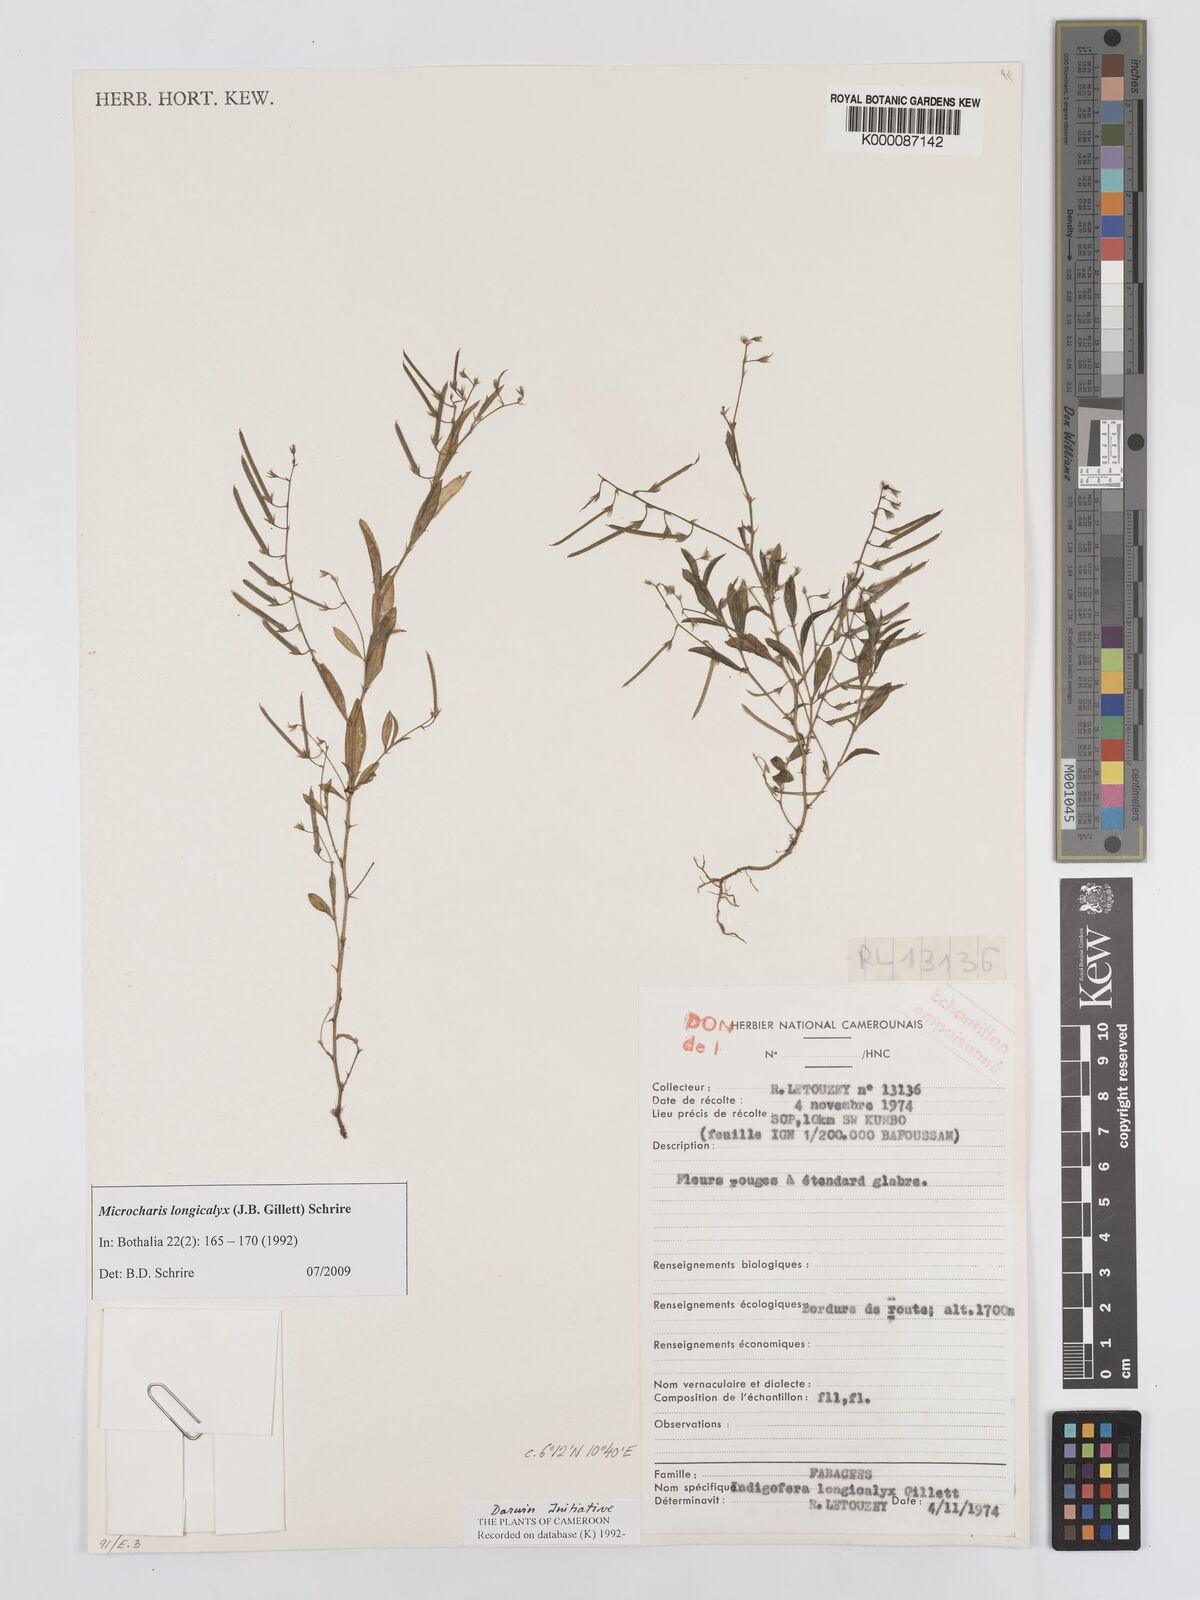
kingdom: Plantae
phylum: Tracheophyta
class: Magnoliopsida
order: Fabales
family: Fabaceae
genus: Indigofera
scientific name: Indigofera
